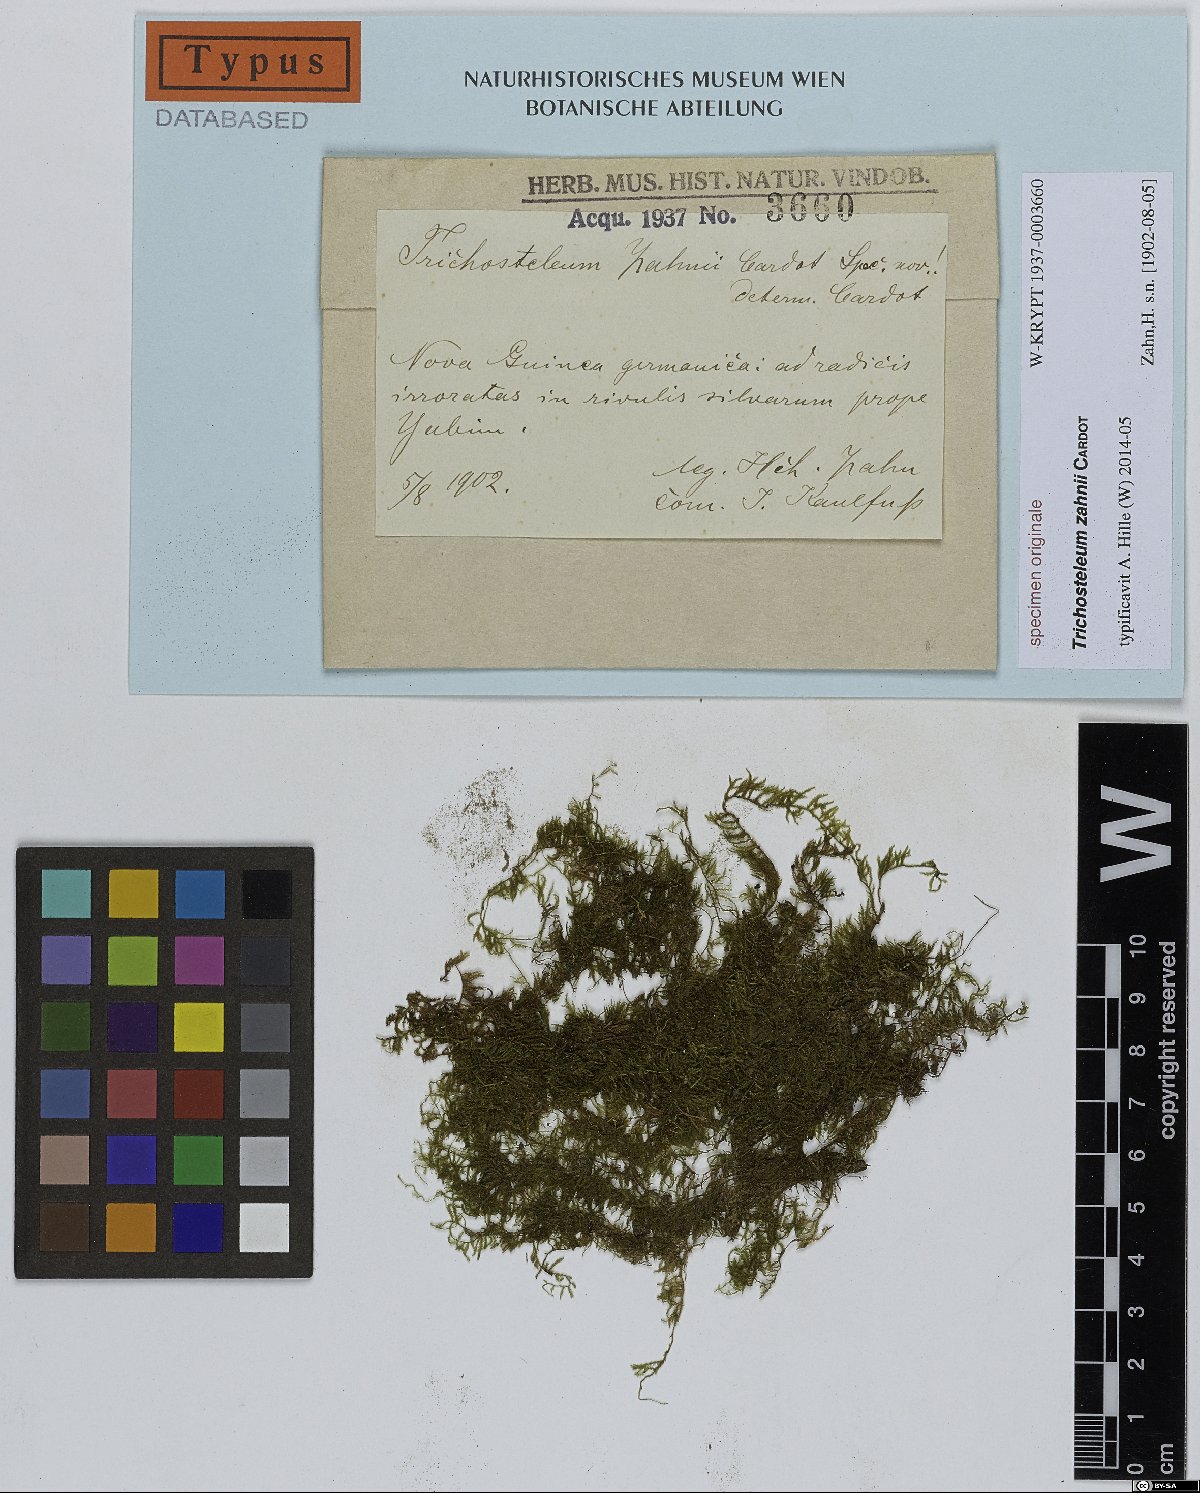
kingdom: Plantae
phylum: Bryophyta
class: Bryopsida
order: Hypnales
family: Sematophyllaceae
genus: Trichosteleum
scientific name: Trichosteleum
